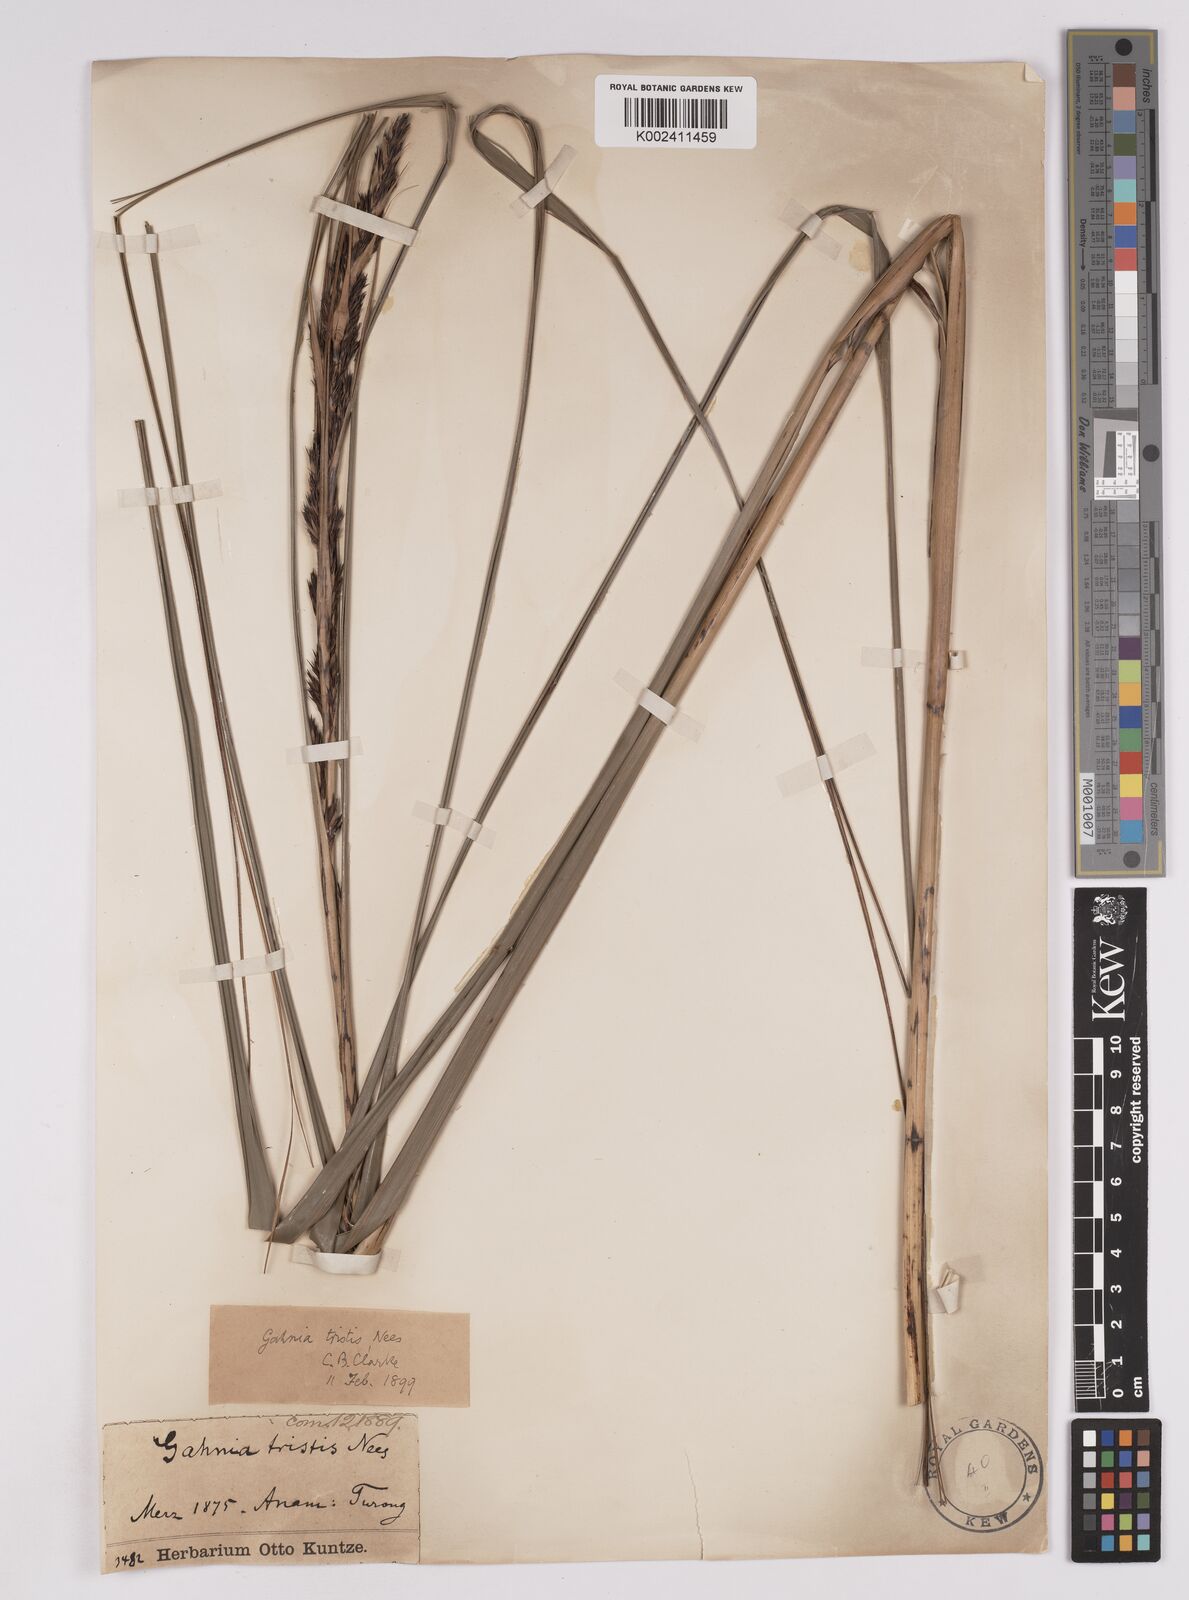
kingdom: Plantae
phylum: Tracheophyta
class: Liliopsida
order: Poales
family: Cyperaceae
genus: Gahnia
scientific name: Gahnia tristis
